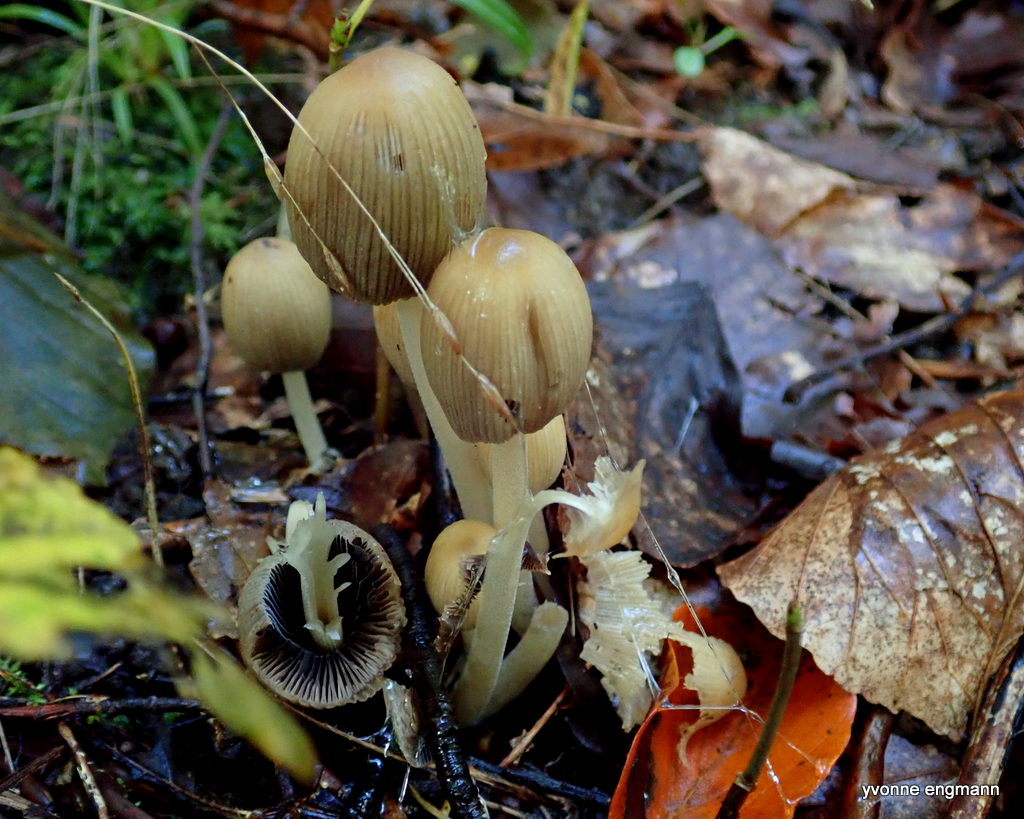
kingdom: Fungi
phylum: Basidiomycota
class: Agaricomycetes
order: Agaricales
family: Psathyrellaceae
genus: Coprinellus
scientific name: Coprinellus micaceus
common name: glimmer-blækhat
